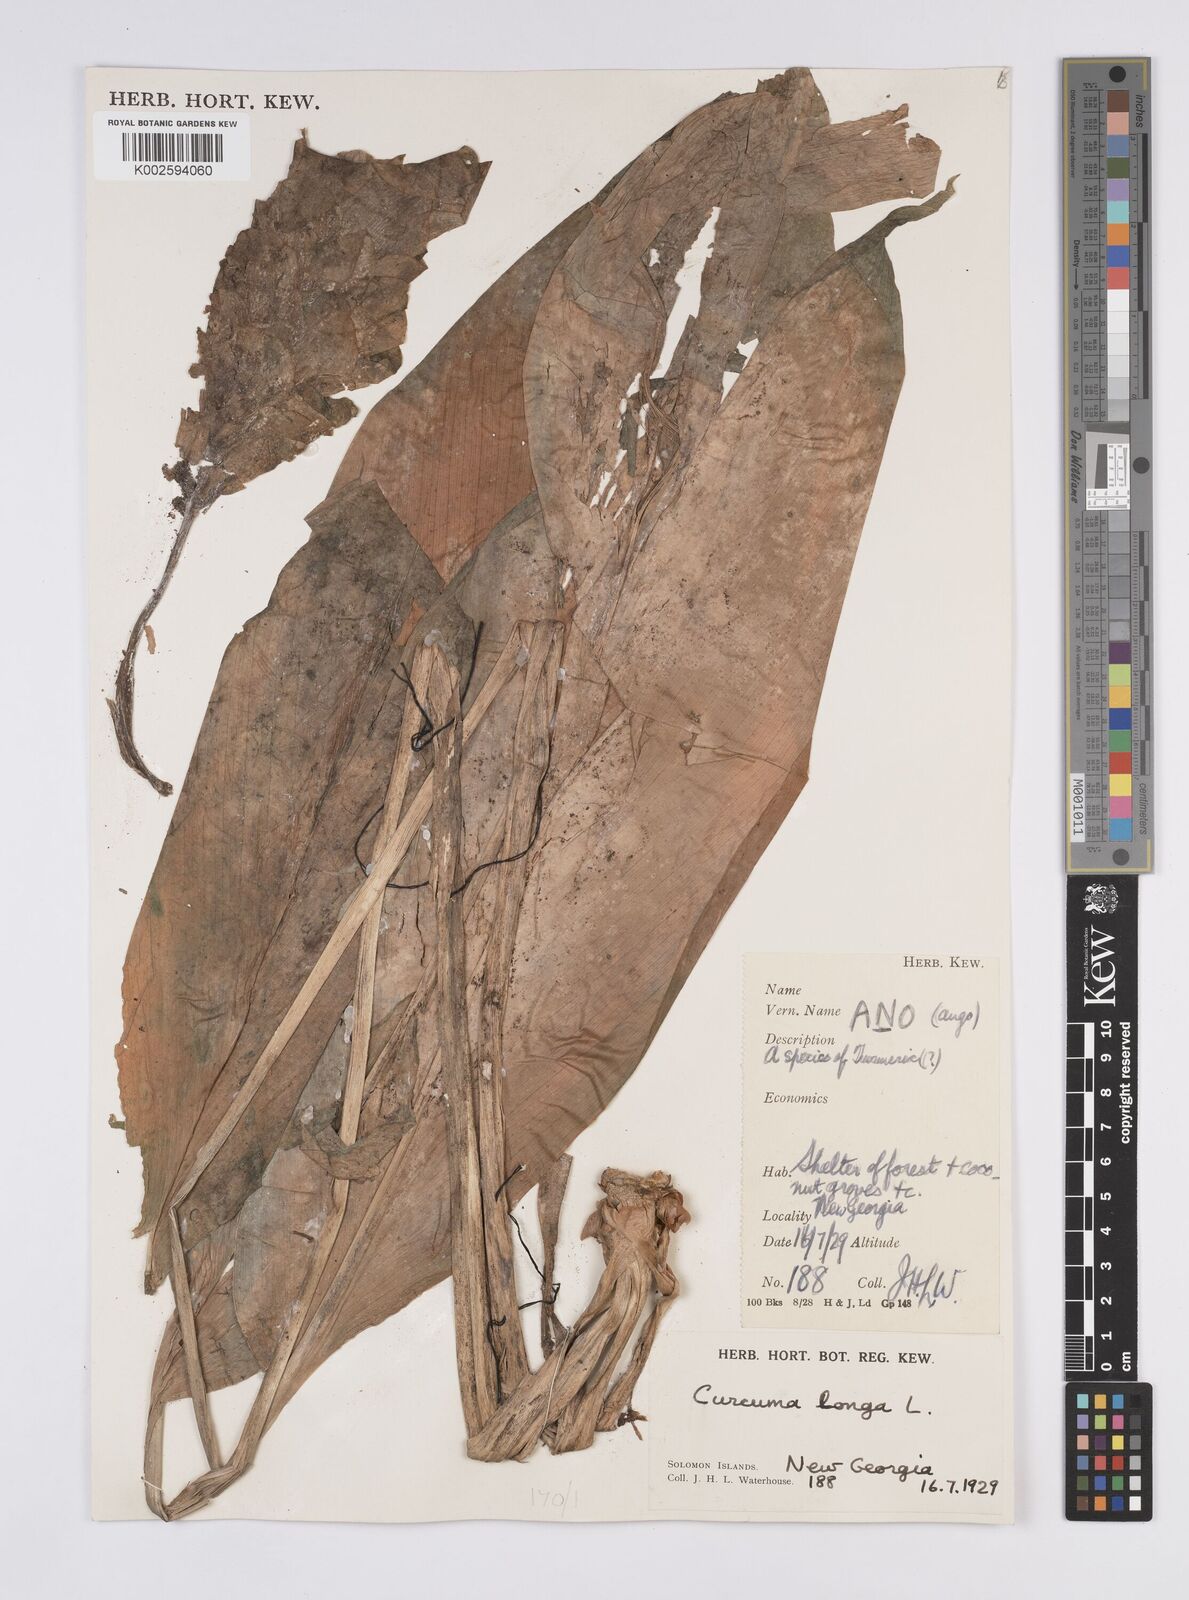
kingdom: Plantae
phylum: Tracheophyta
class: Liliopsida
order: Zingiberales
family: Zingiberaceae
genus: Curcuma
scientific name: Curcuma longa
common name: Turmeric
